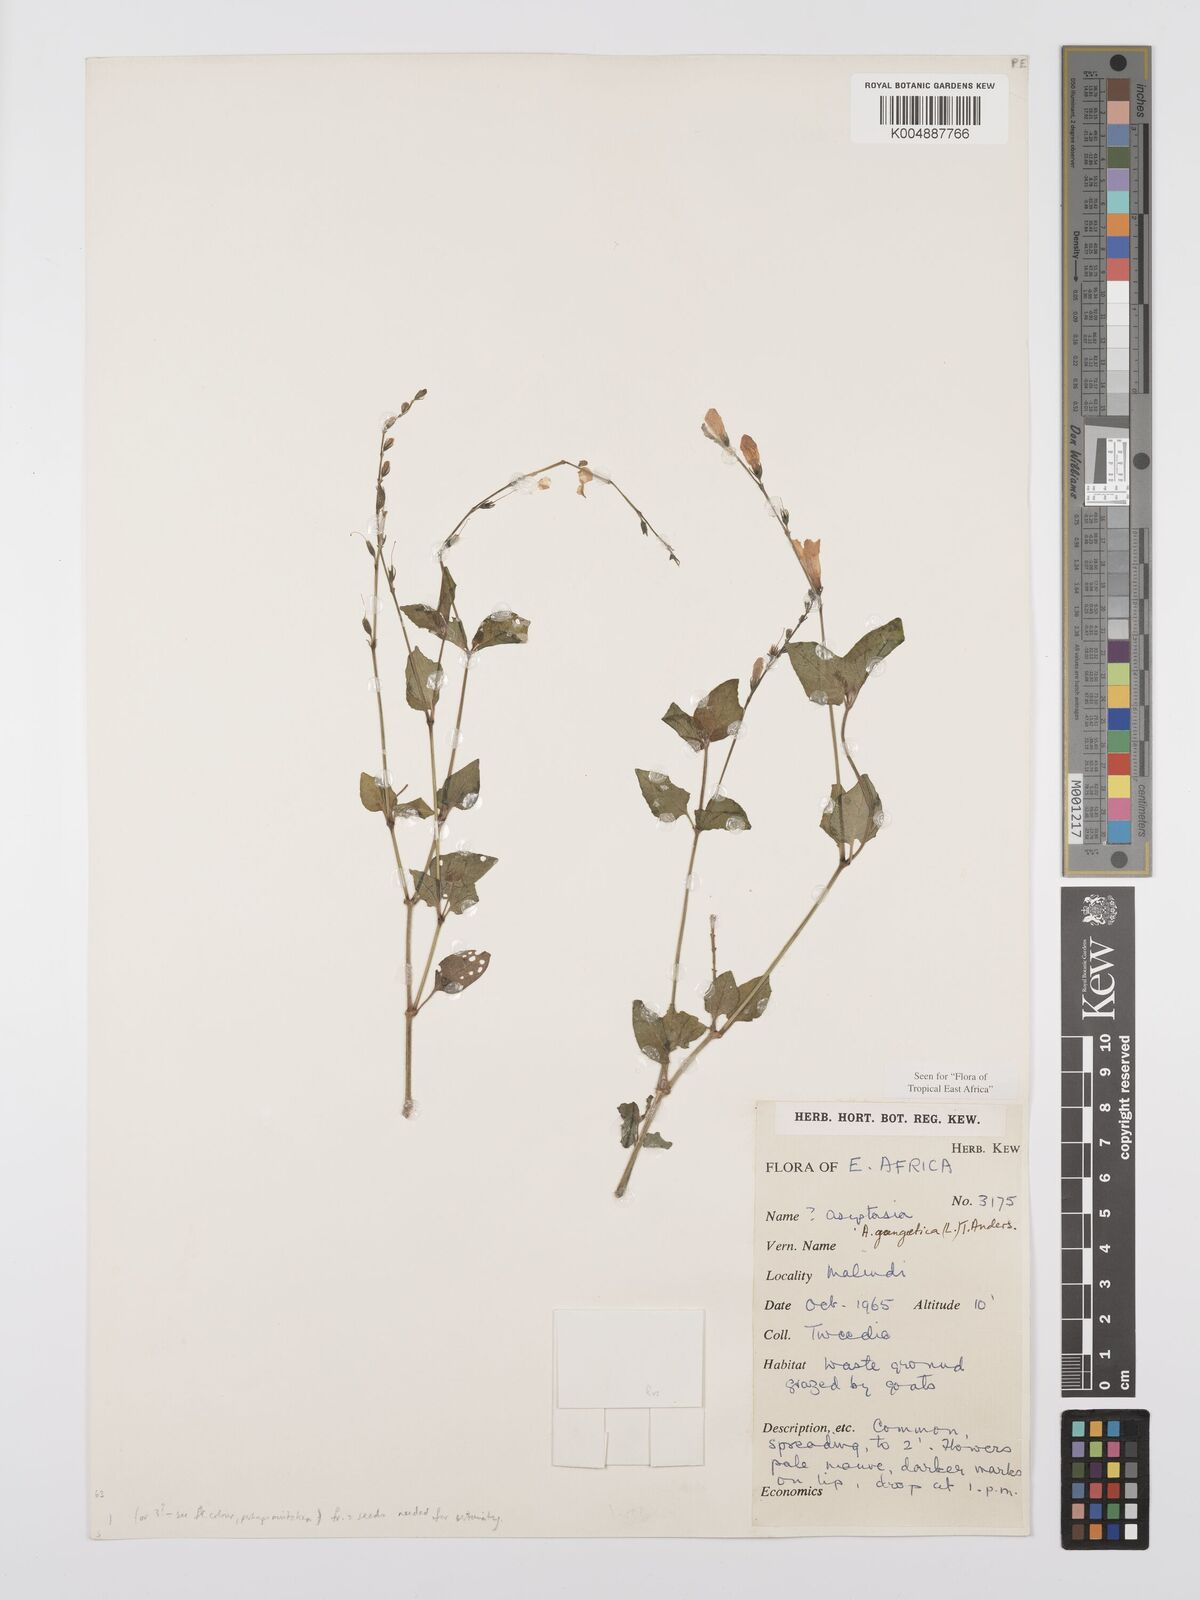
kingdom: Plantae
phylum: Tracheophyta
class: Magnoliopsida
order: Lamiales
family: Acanthaceae
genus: Asystasia
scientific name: Asystasia gangetica
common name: Chinese violet
